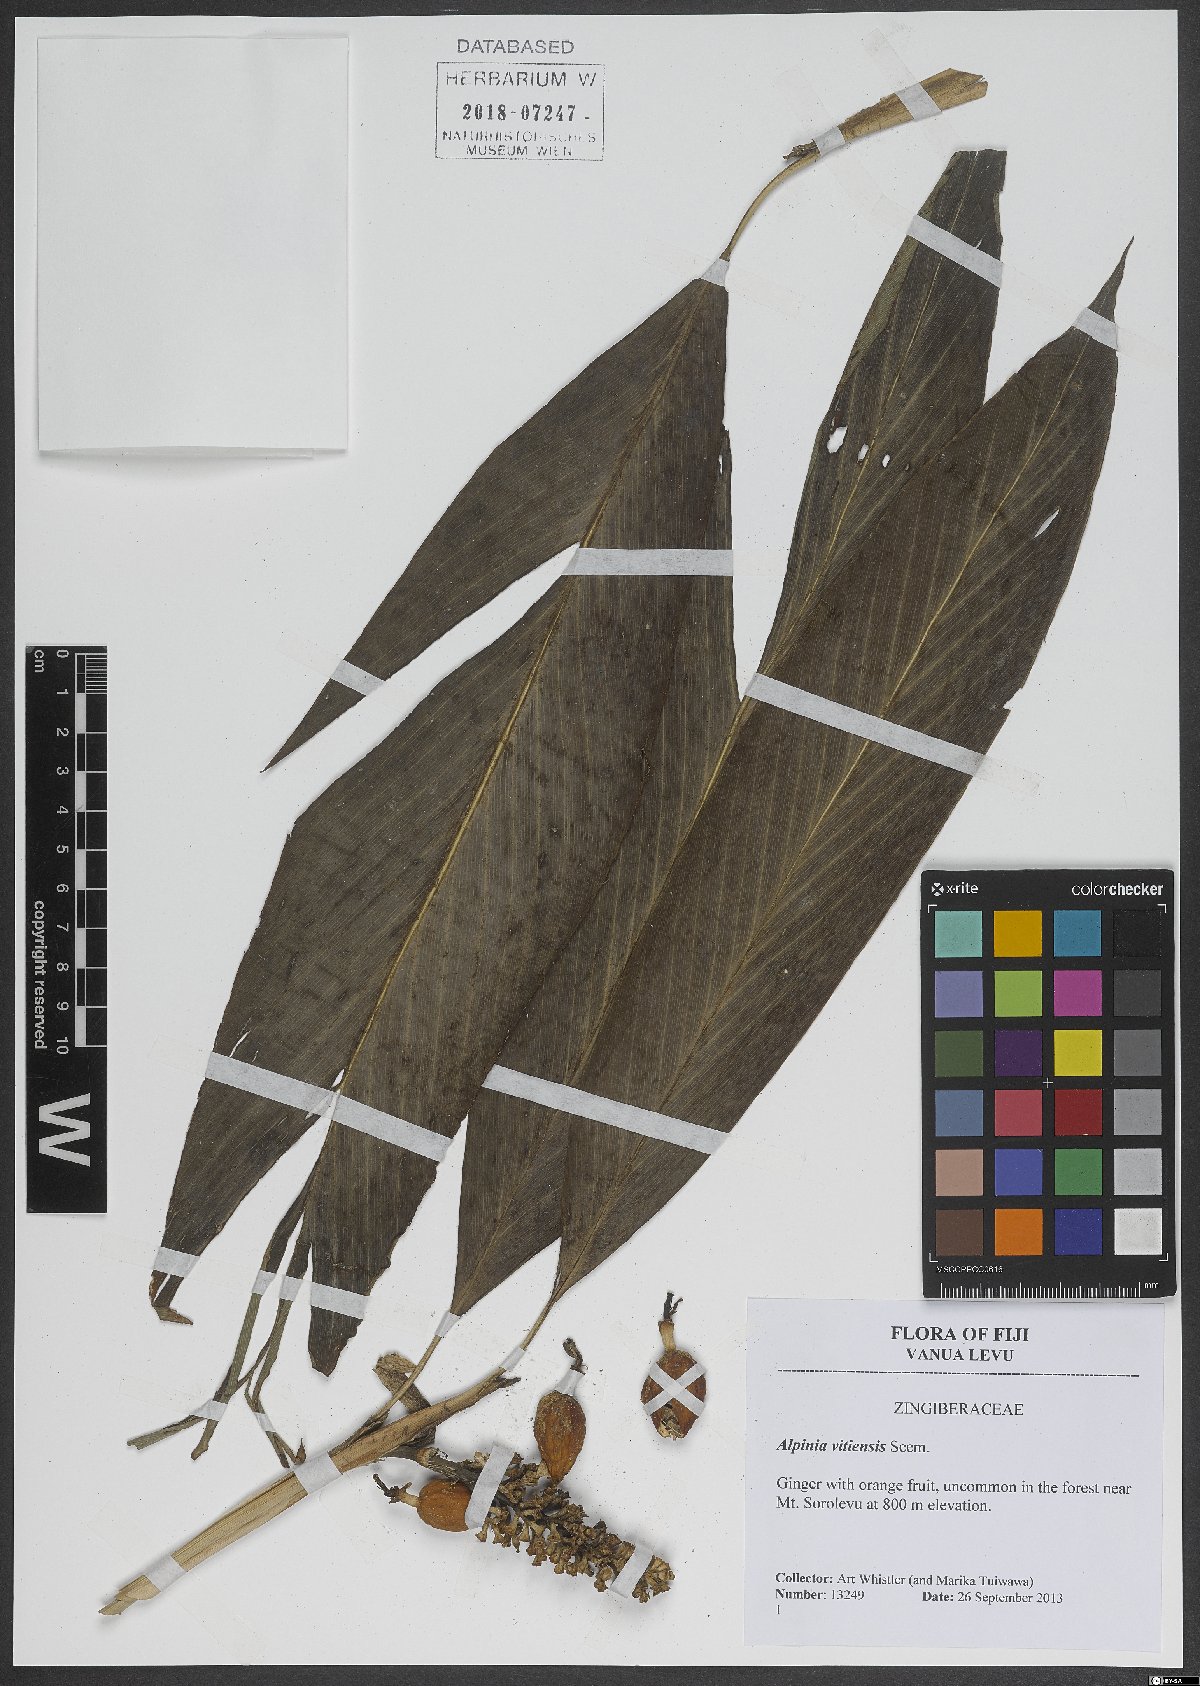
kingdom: Plantae
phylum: Tracheophyta
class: Liliopsida
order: Zingiberales
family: Zingiberaceae
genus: Alpinia
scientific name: Alpinia vitiensis
